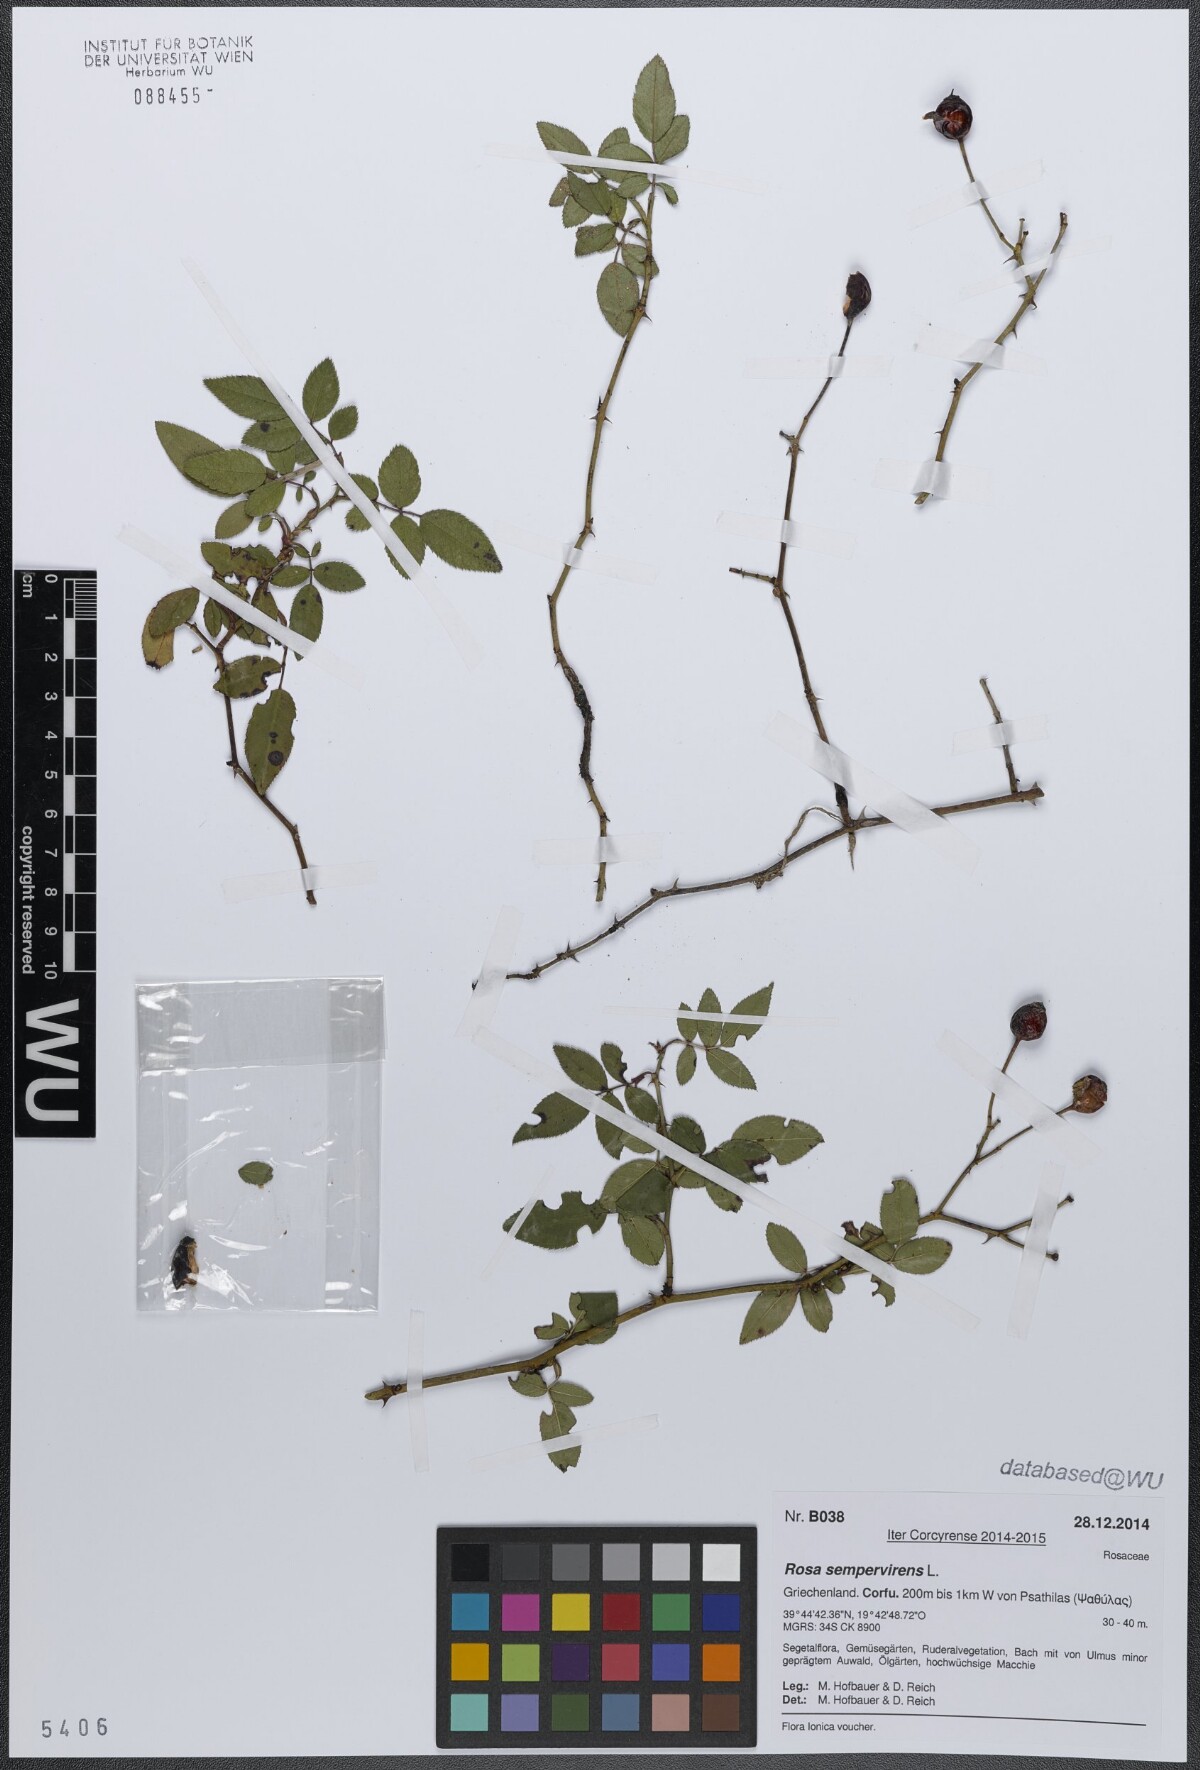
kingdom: Plantae
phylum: Tracheophyta
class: Magnoliopsida
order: Rosales
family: Rosaceae
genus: Rosa
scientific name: Rosa sempervirens
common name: Evergreen rose
